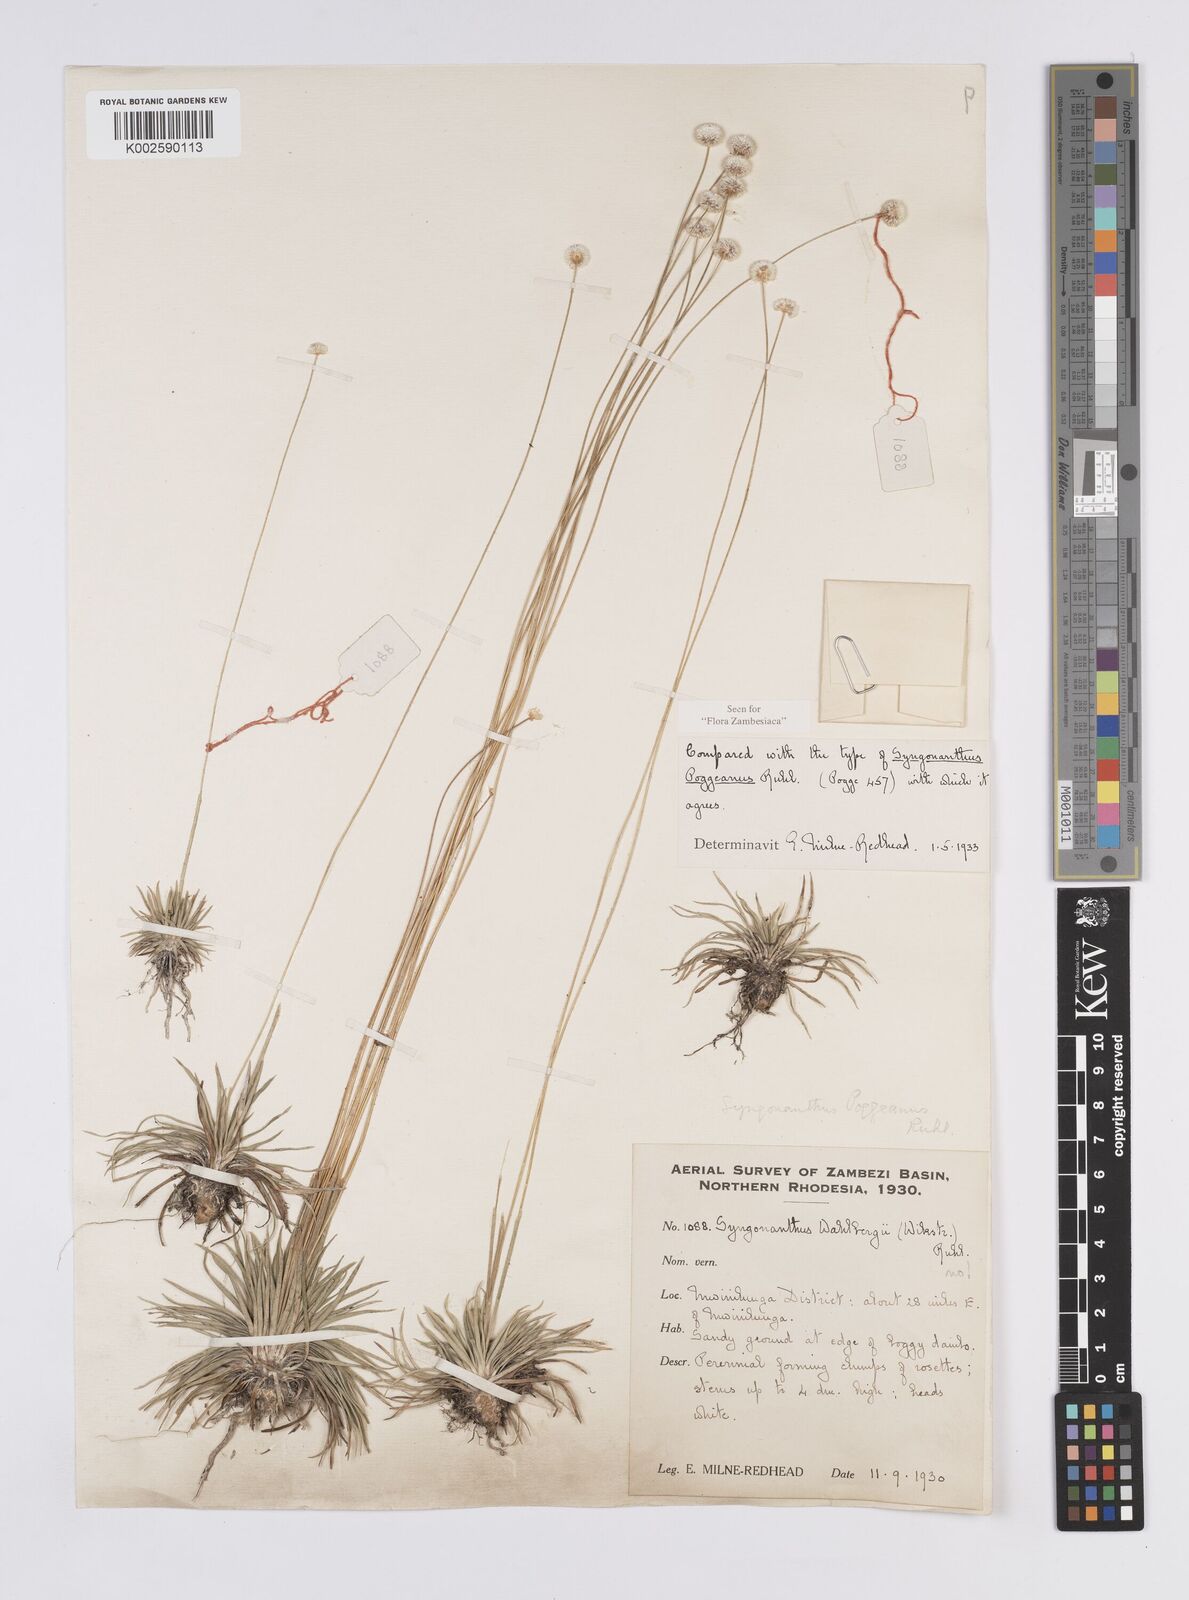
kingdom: Plantae
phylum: Tracheophyta
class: Liliopsida
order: Poales
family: Eriocaulaceae
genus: Syngonanthus
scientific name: Syngonanthus poggeanus
